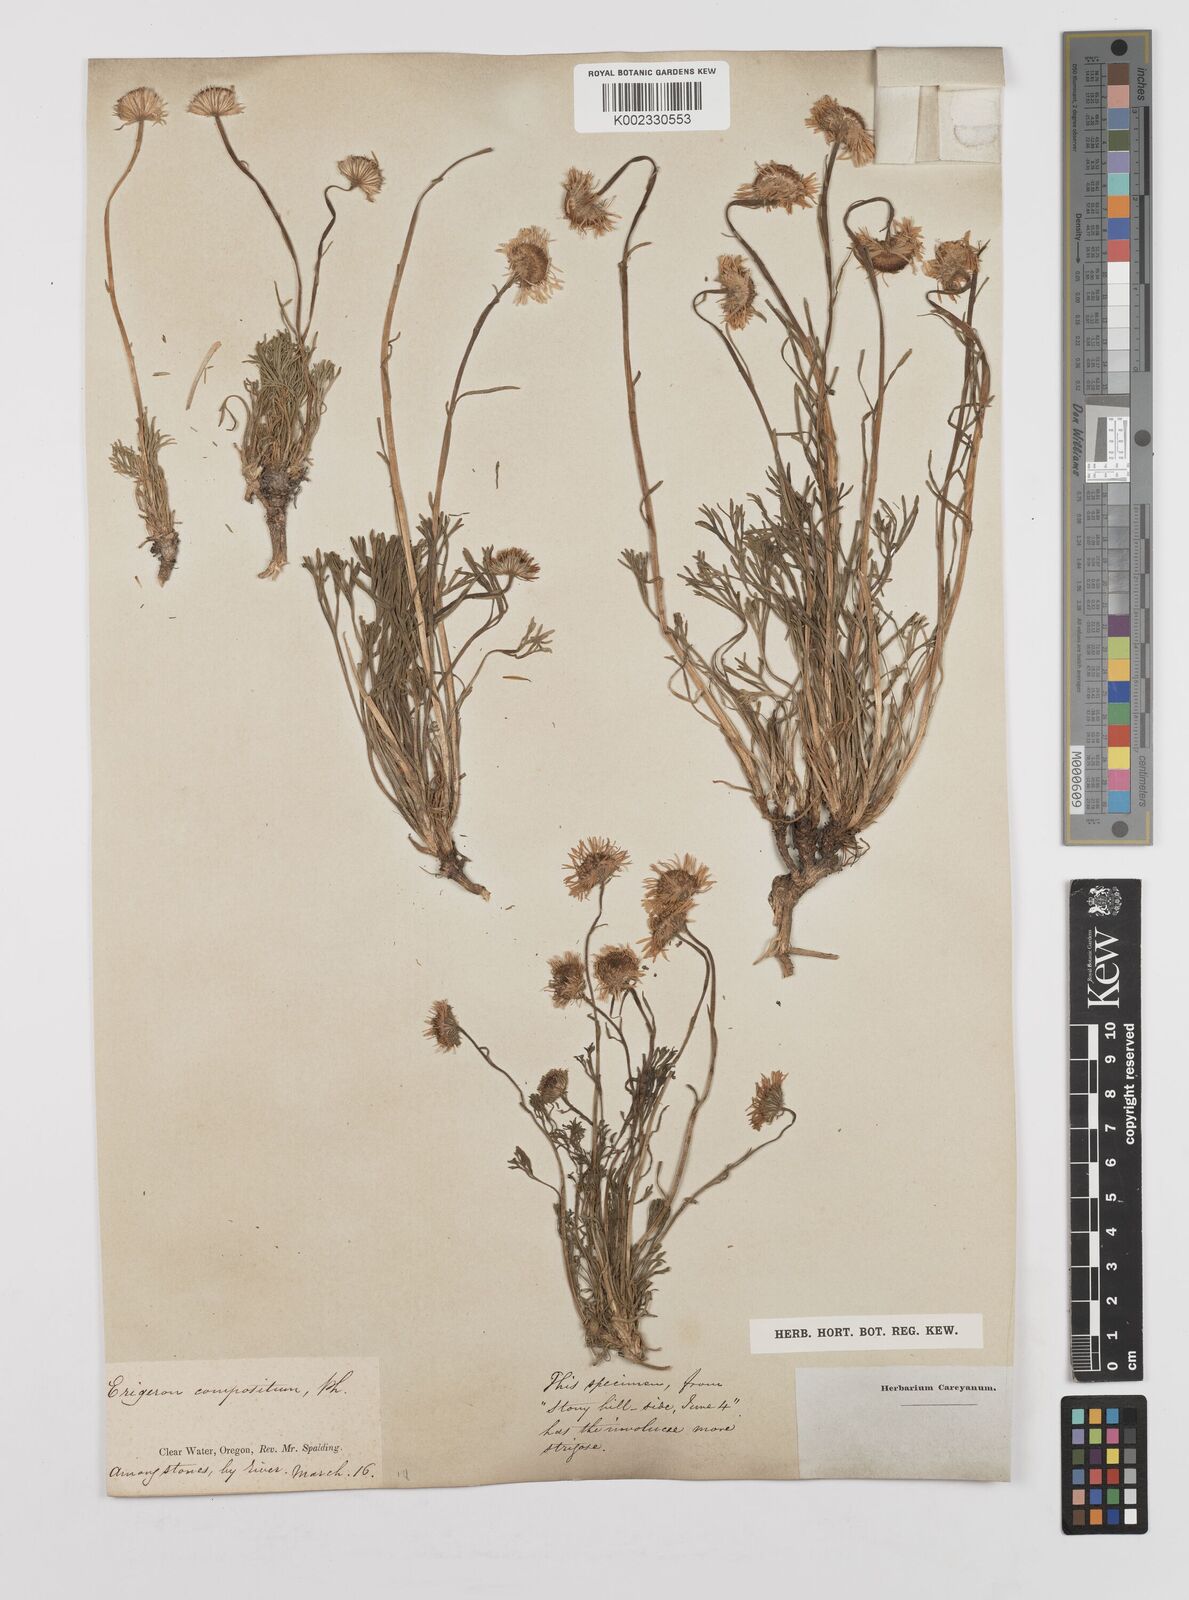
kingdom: Plantae
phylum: Tracheophyta
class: Magnoliopsida
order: Asterales
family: Asteraceae
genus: Erigeron
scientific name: Erigeron compositus
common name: Dwarf mountain fleabane
